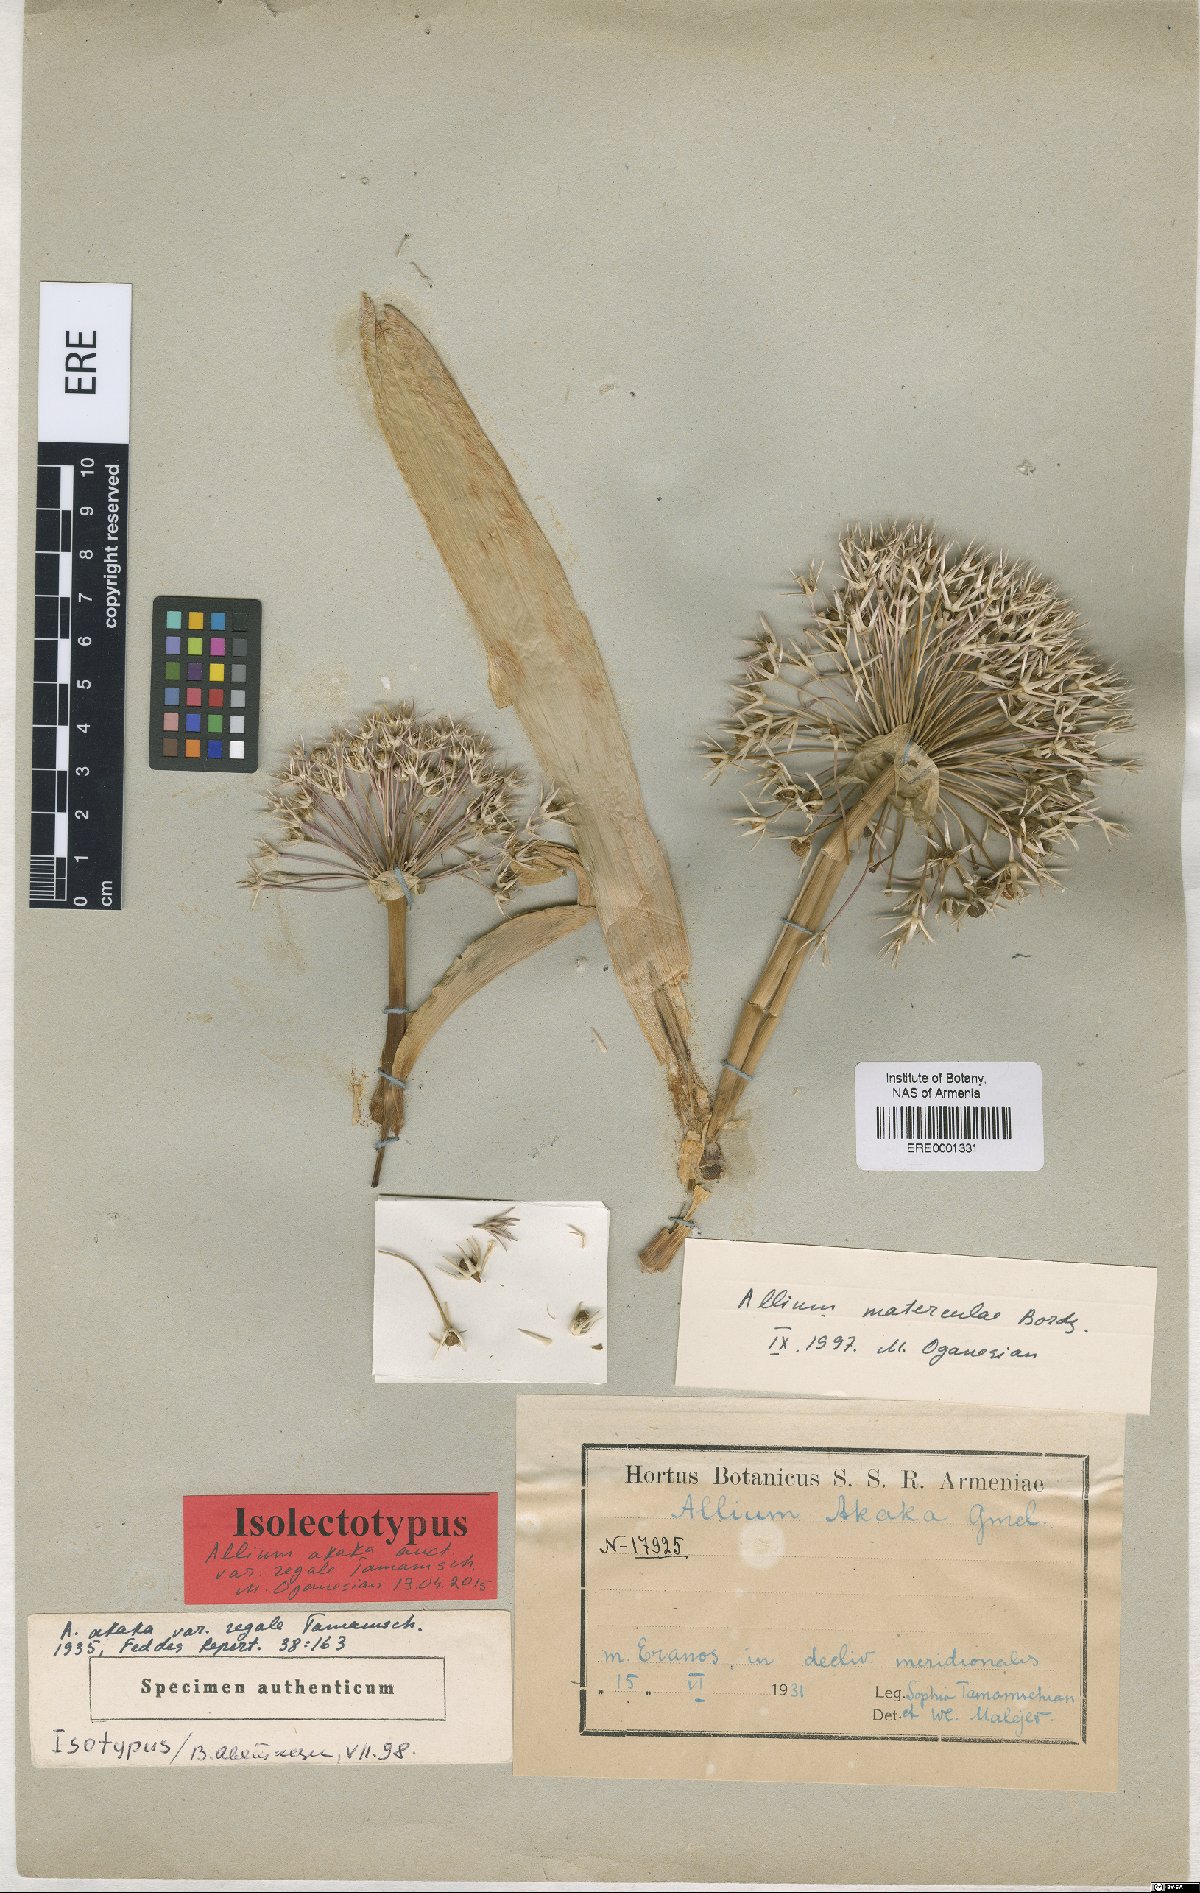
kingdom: Plantae
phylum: Tracheophyta
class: Liliopsida
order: Asparagales
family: Amaryllidaceae
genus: Allium
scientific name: Allium materculae
